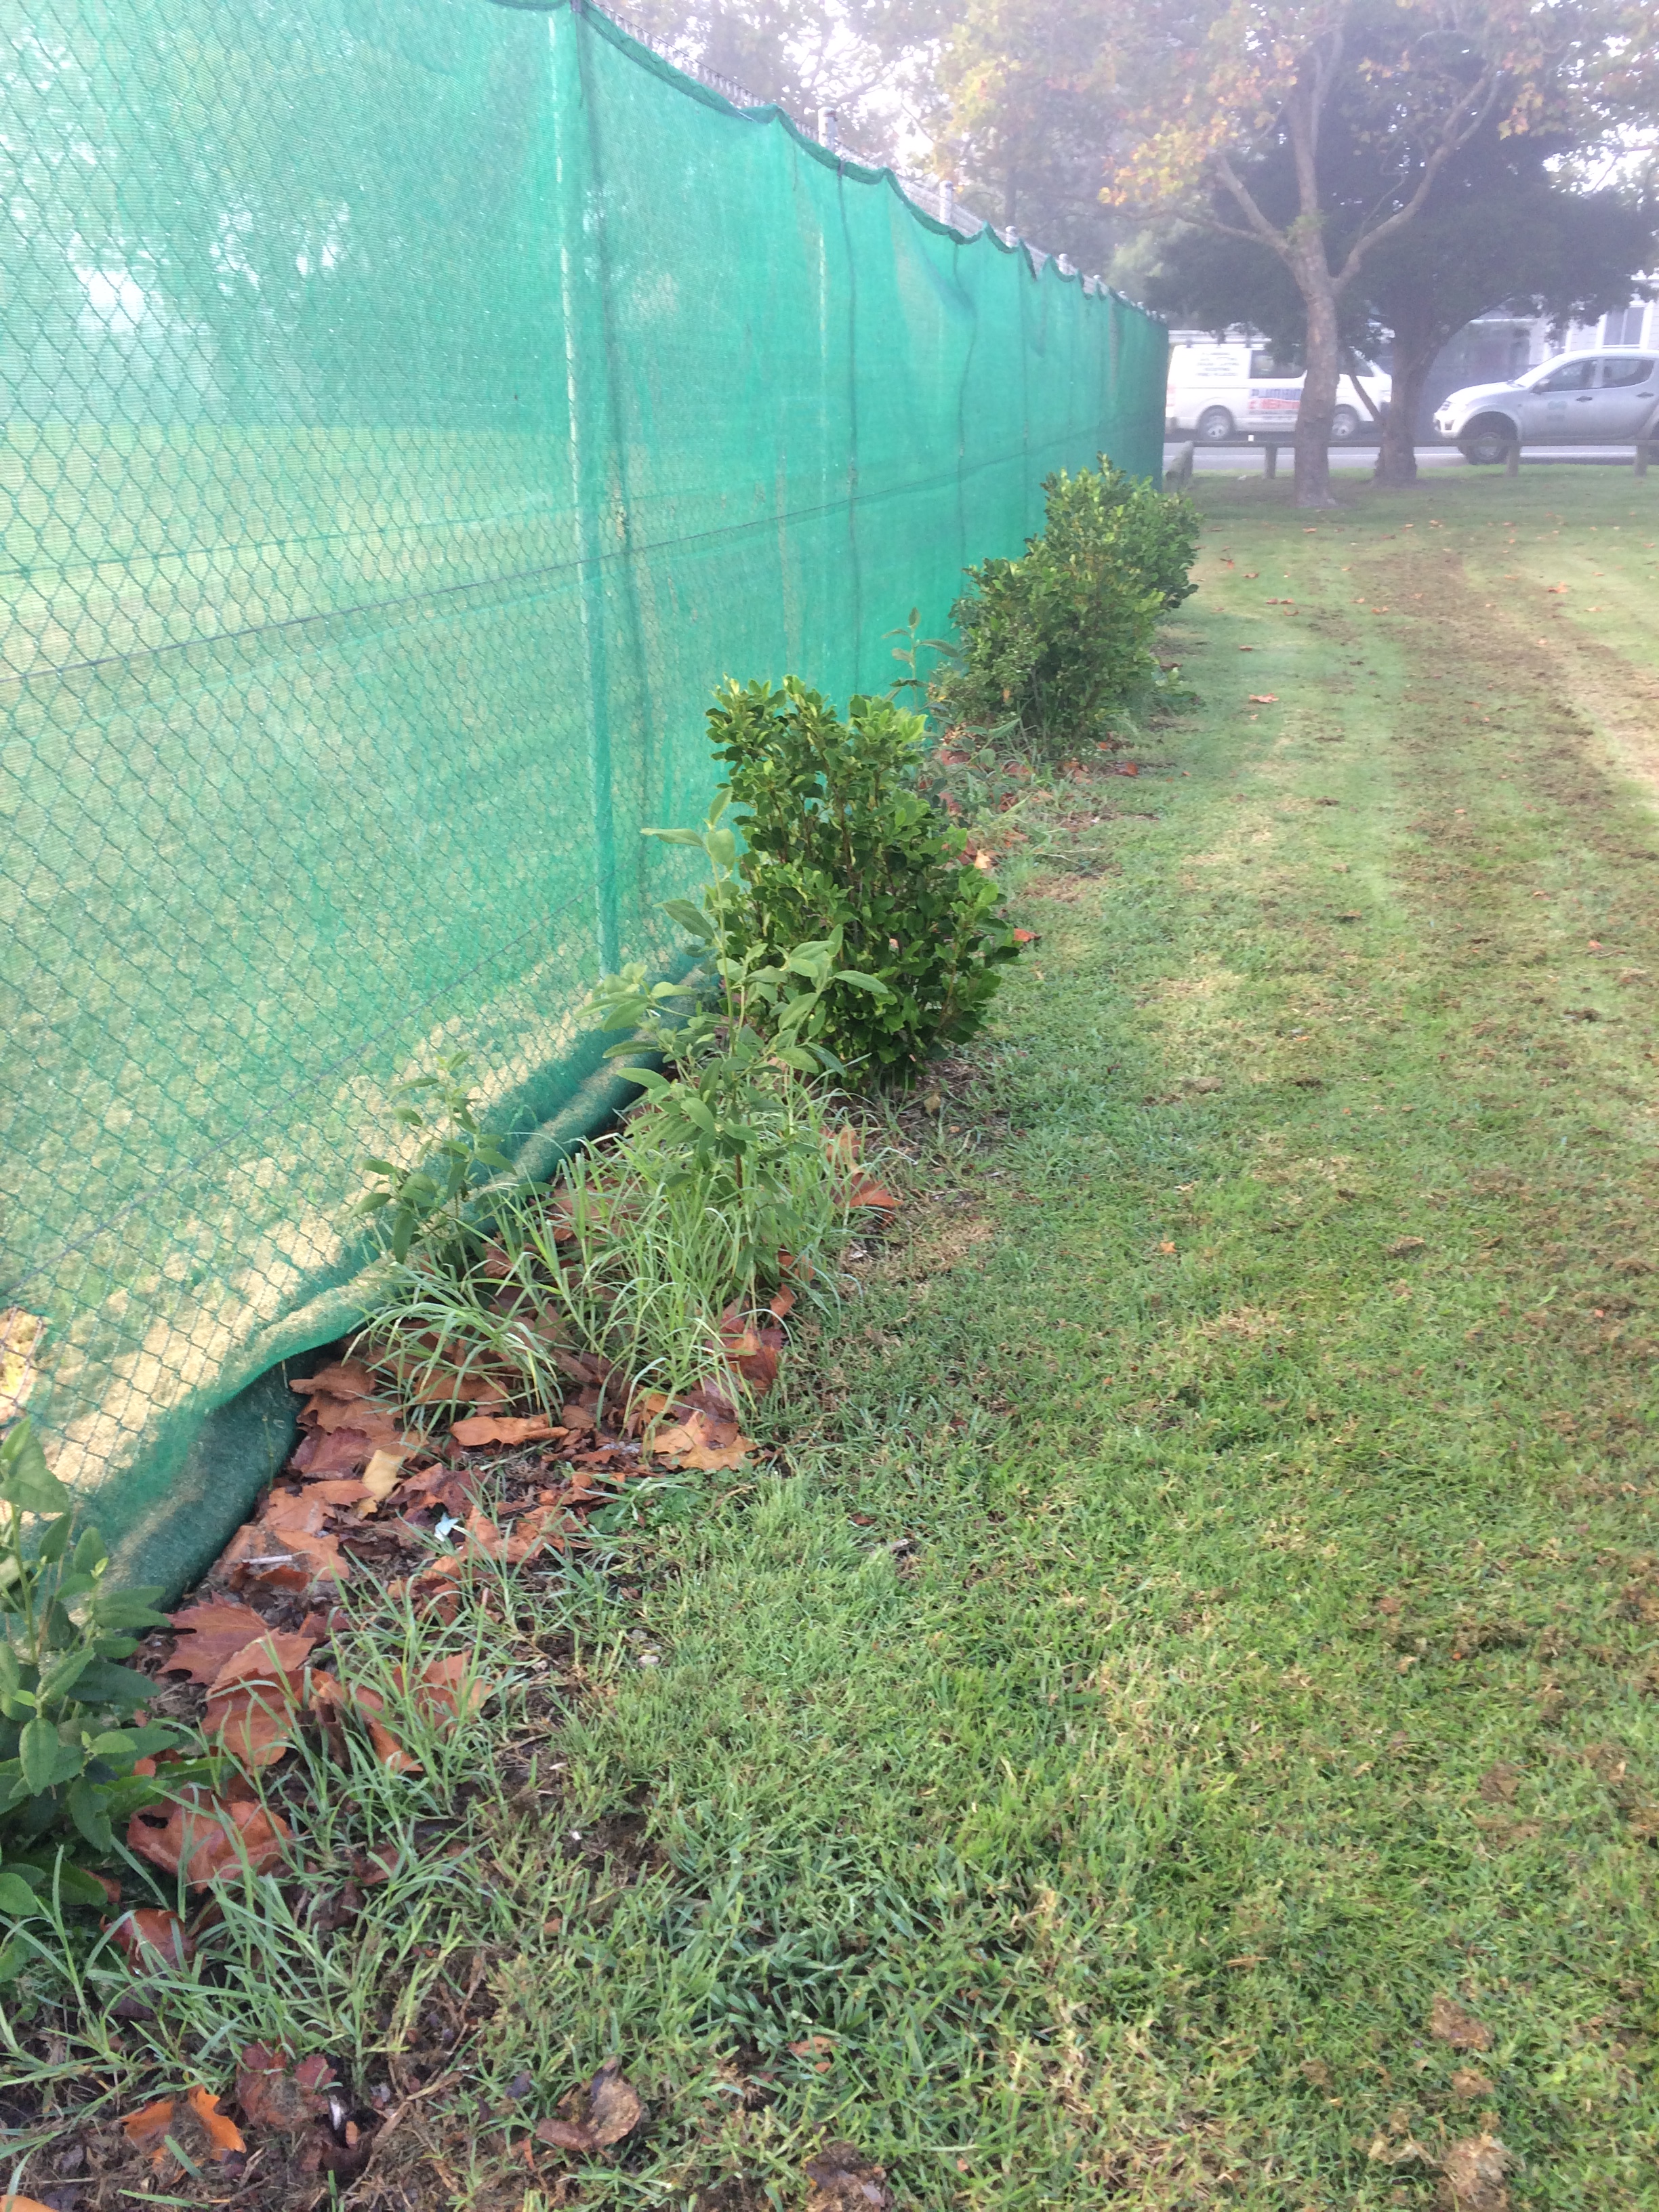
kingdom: Plantae
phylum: Tracheophyta
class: Magnoliopsida
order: Malvales
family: Malvaceae
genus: Lagunaria
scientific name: Lagunaria patersonia
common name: Cow itch tree
